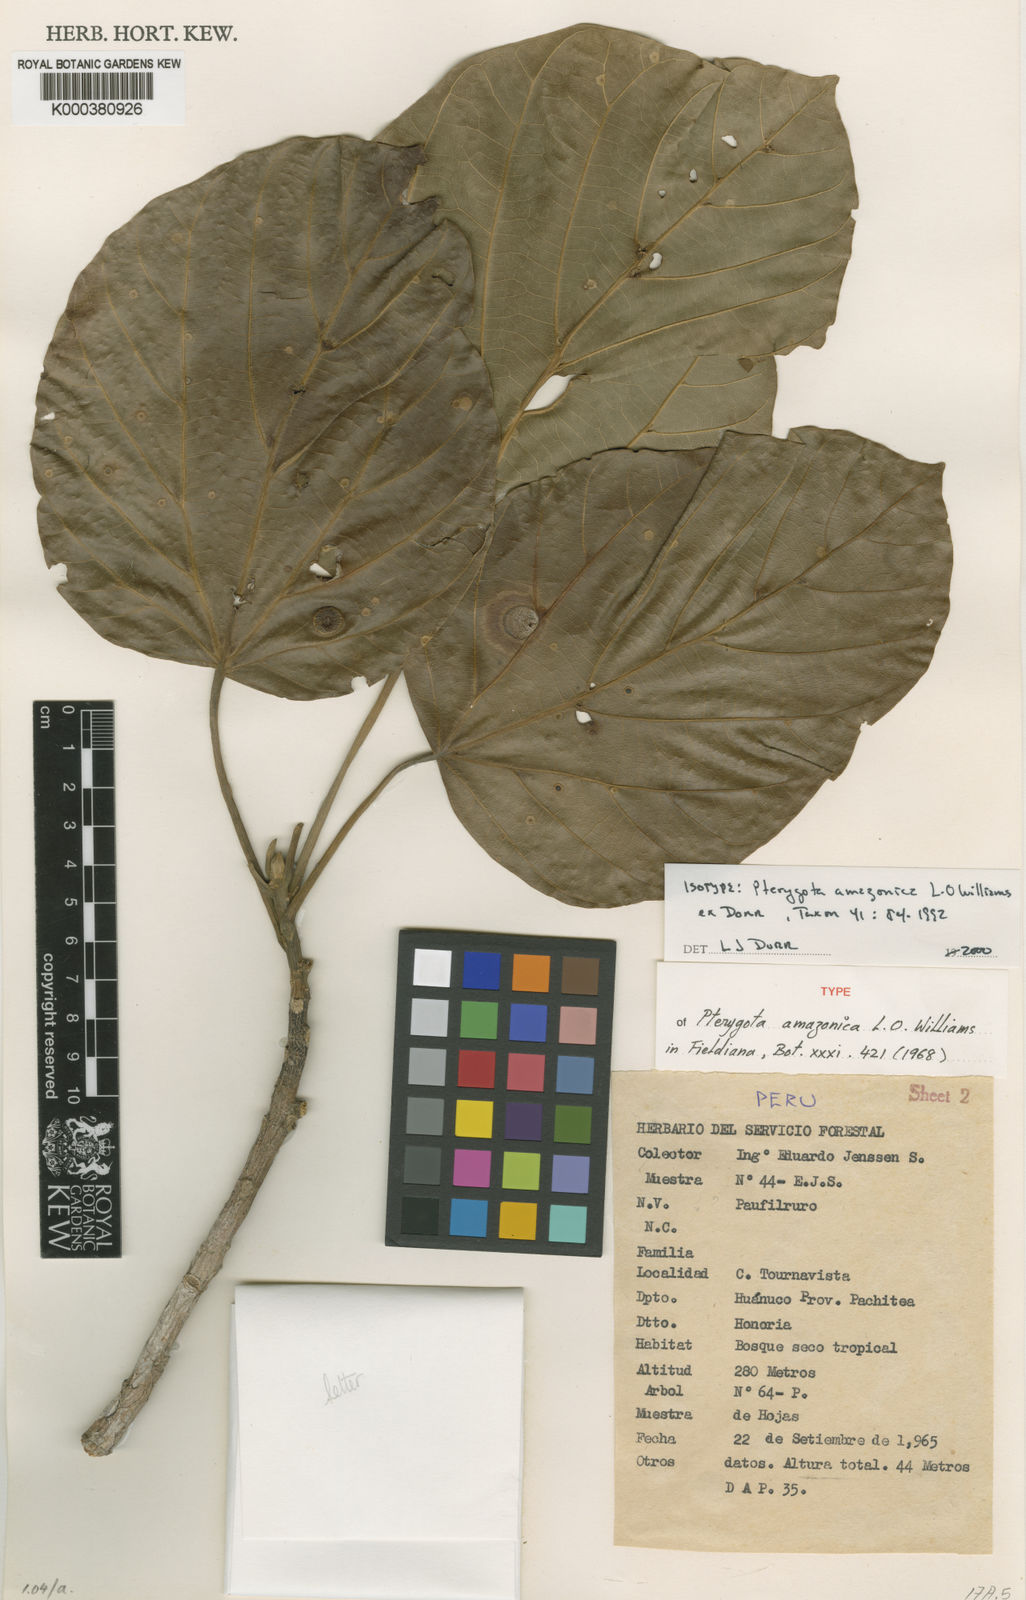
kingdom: Plantae
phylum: Tracheophyta
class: Magnoliopsida
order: Malvales
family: Malvaceae
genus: Pterygota
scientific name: Pterygota amazonica
